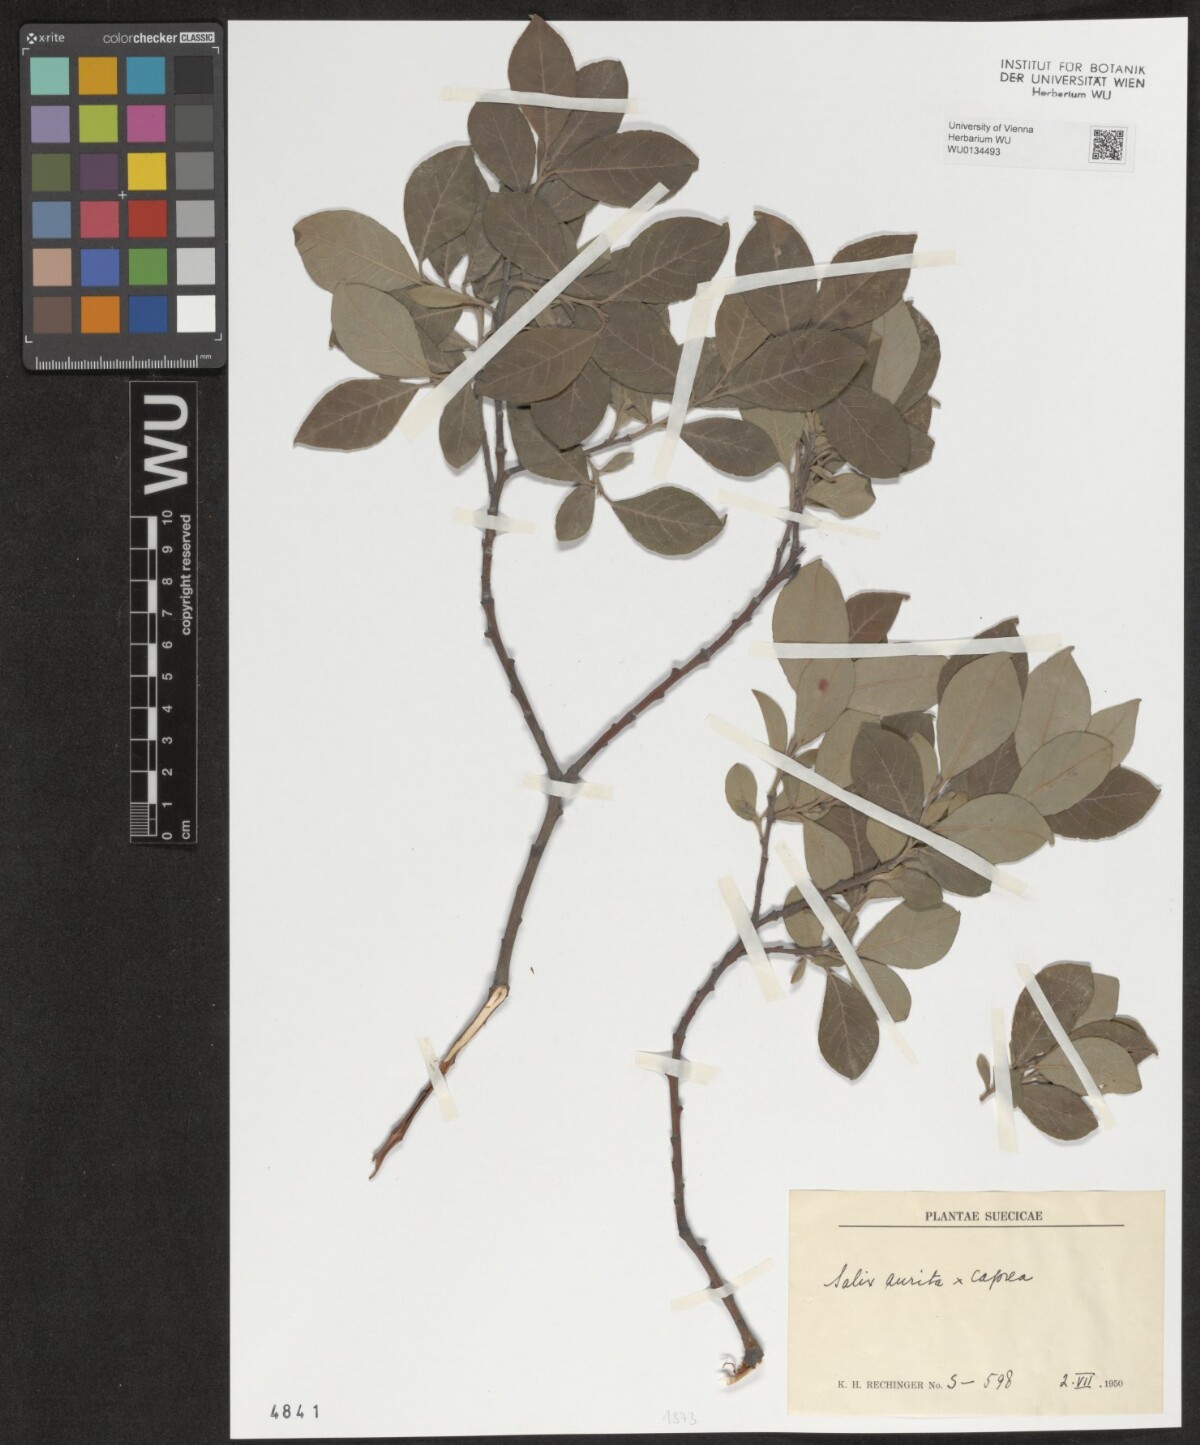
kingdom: Plantae
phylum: Tracheophyta
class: Magnoliopsida
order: Malpighiales
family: Salicaceae
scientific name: Salicaceae
